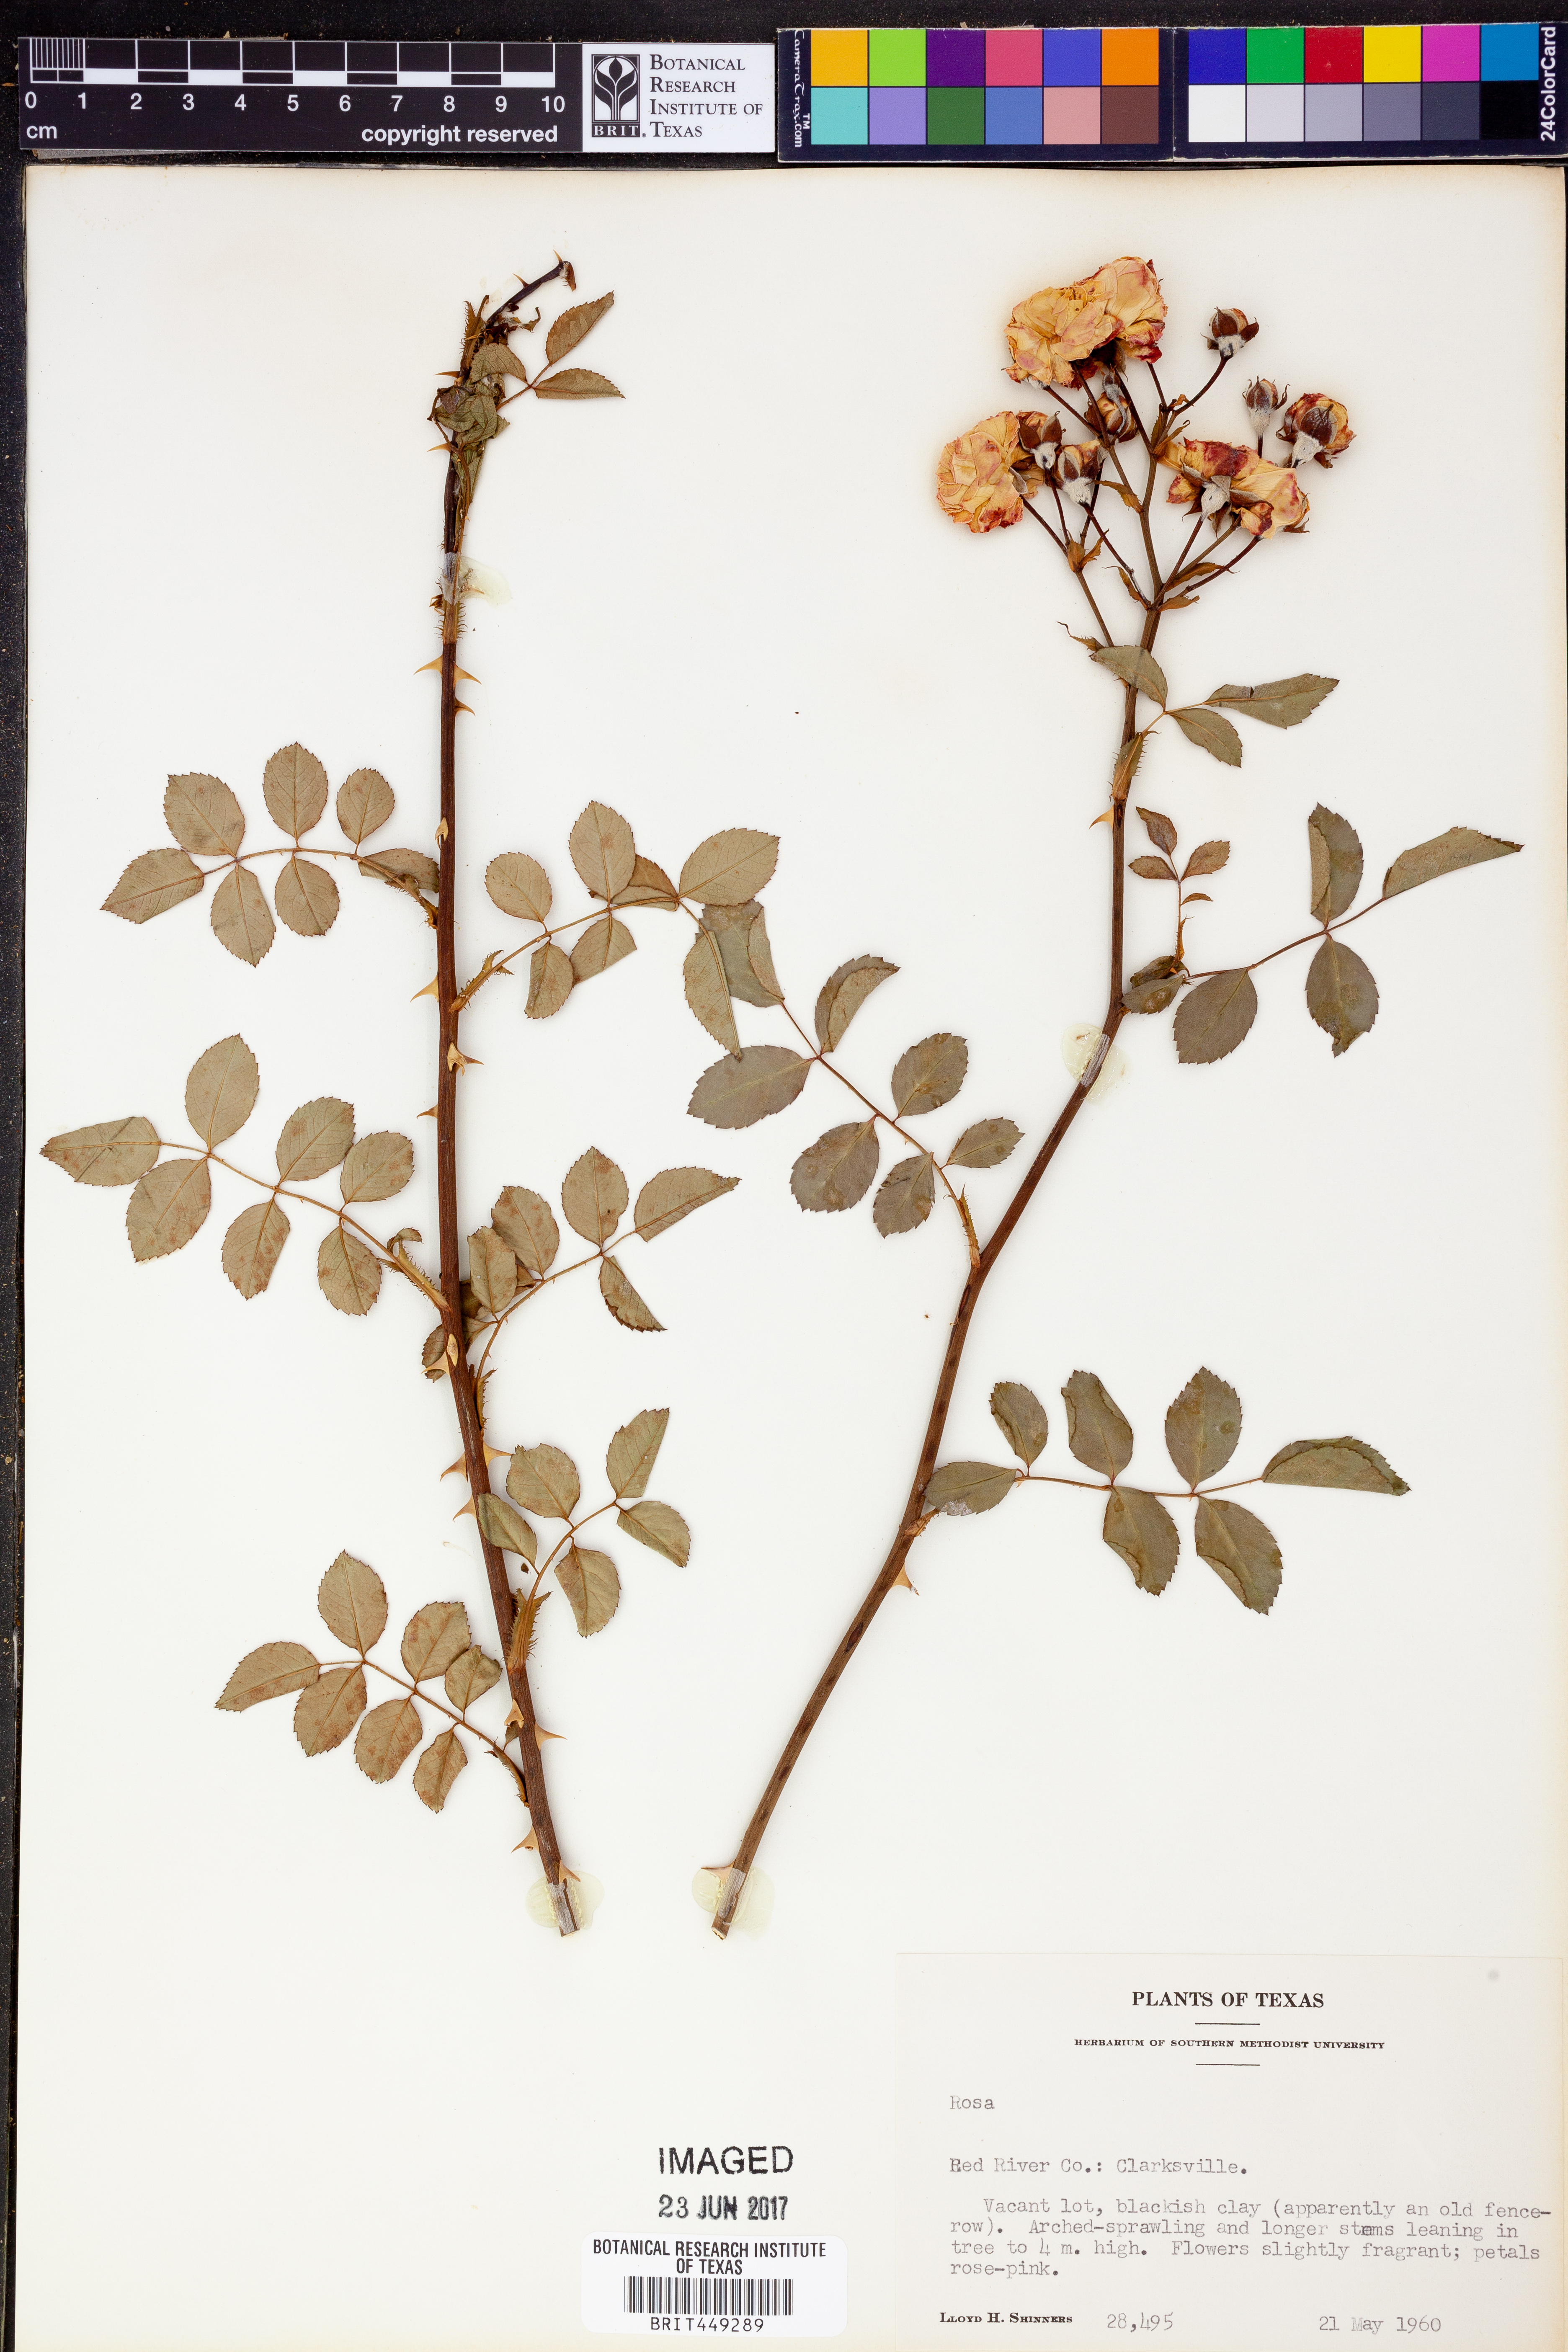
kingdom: Plantae
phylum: Tracheophyta
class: Magnoliopsida
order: Rosales
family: Rosaceae
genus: Rosa
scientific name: Rosa
